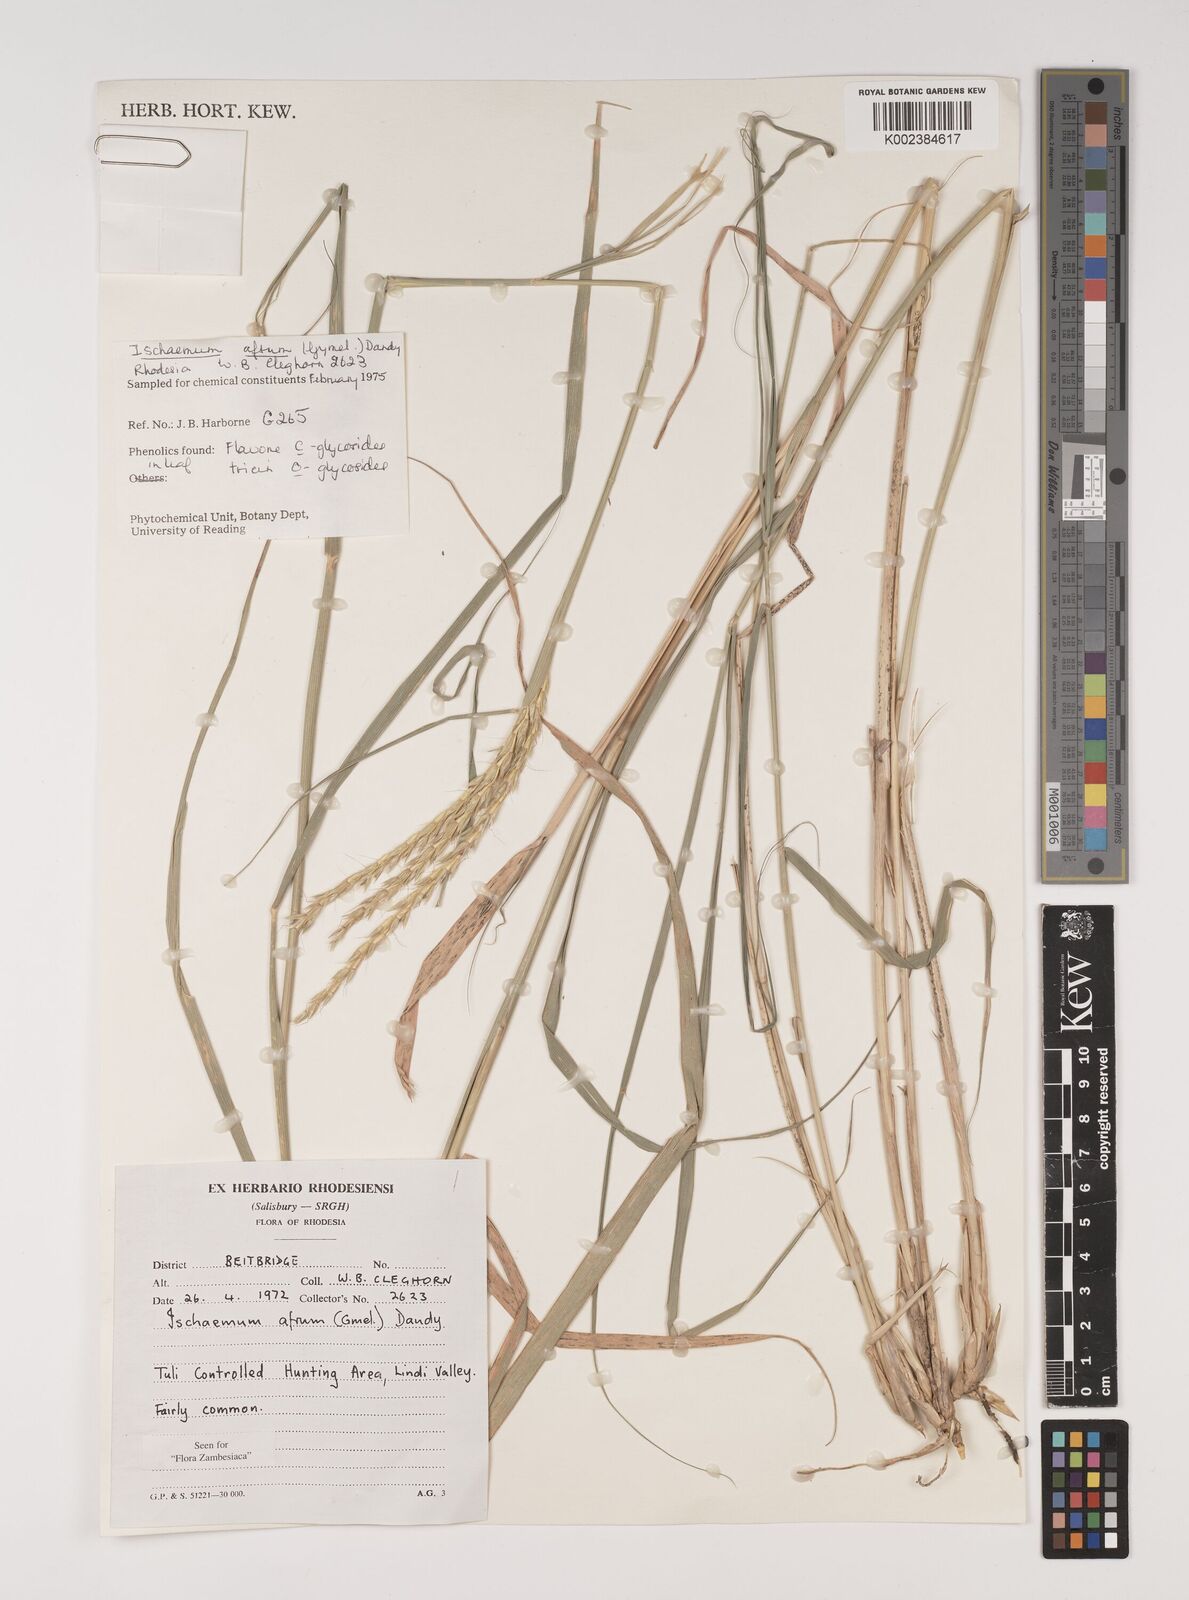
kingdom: Plantae
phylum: Tracheophyta
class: Liliopsida
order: Poales
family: Poaceae
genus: Ischaemum
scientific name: Ischaemum afrum
